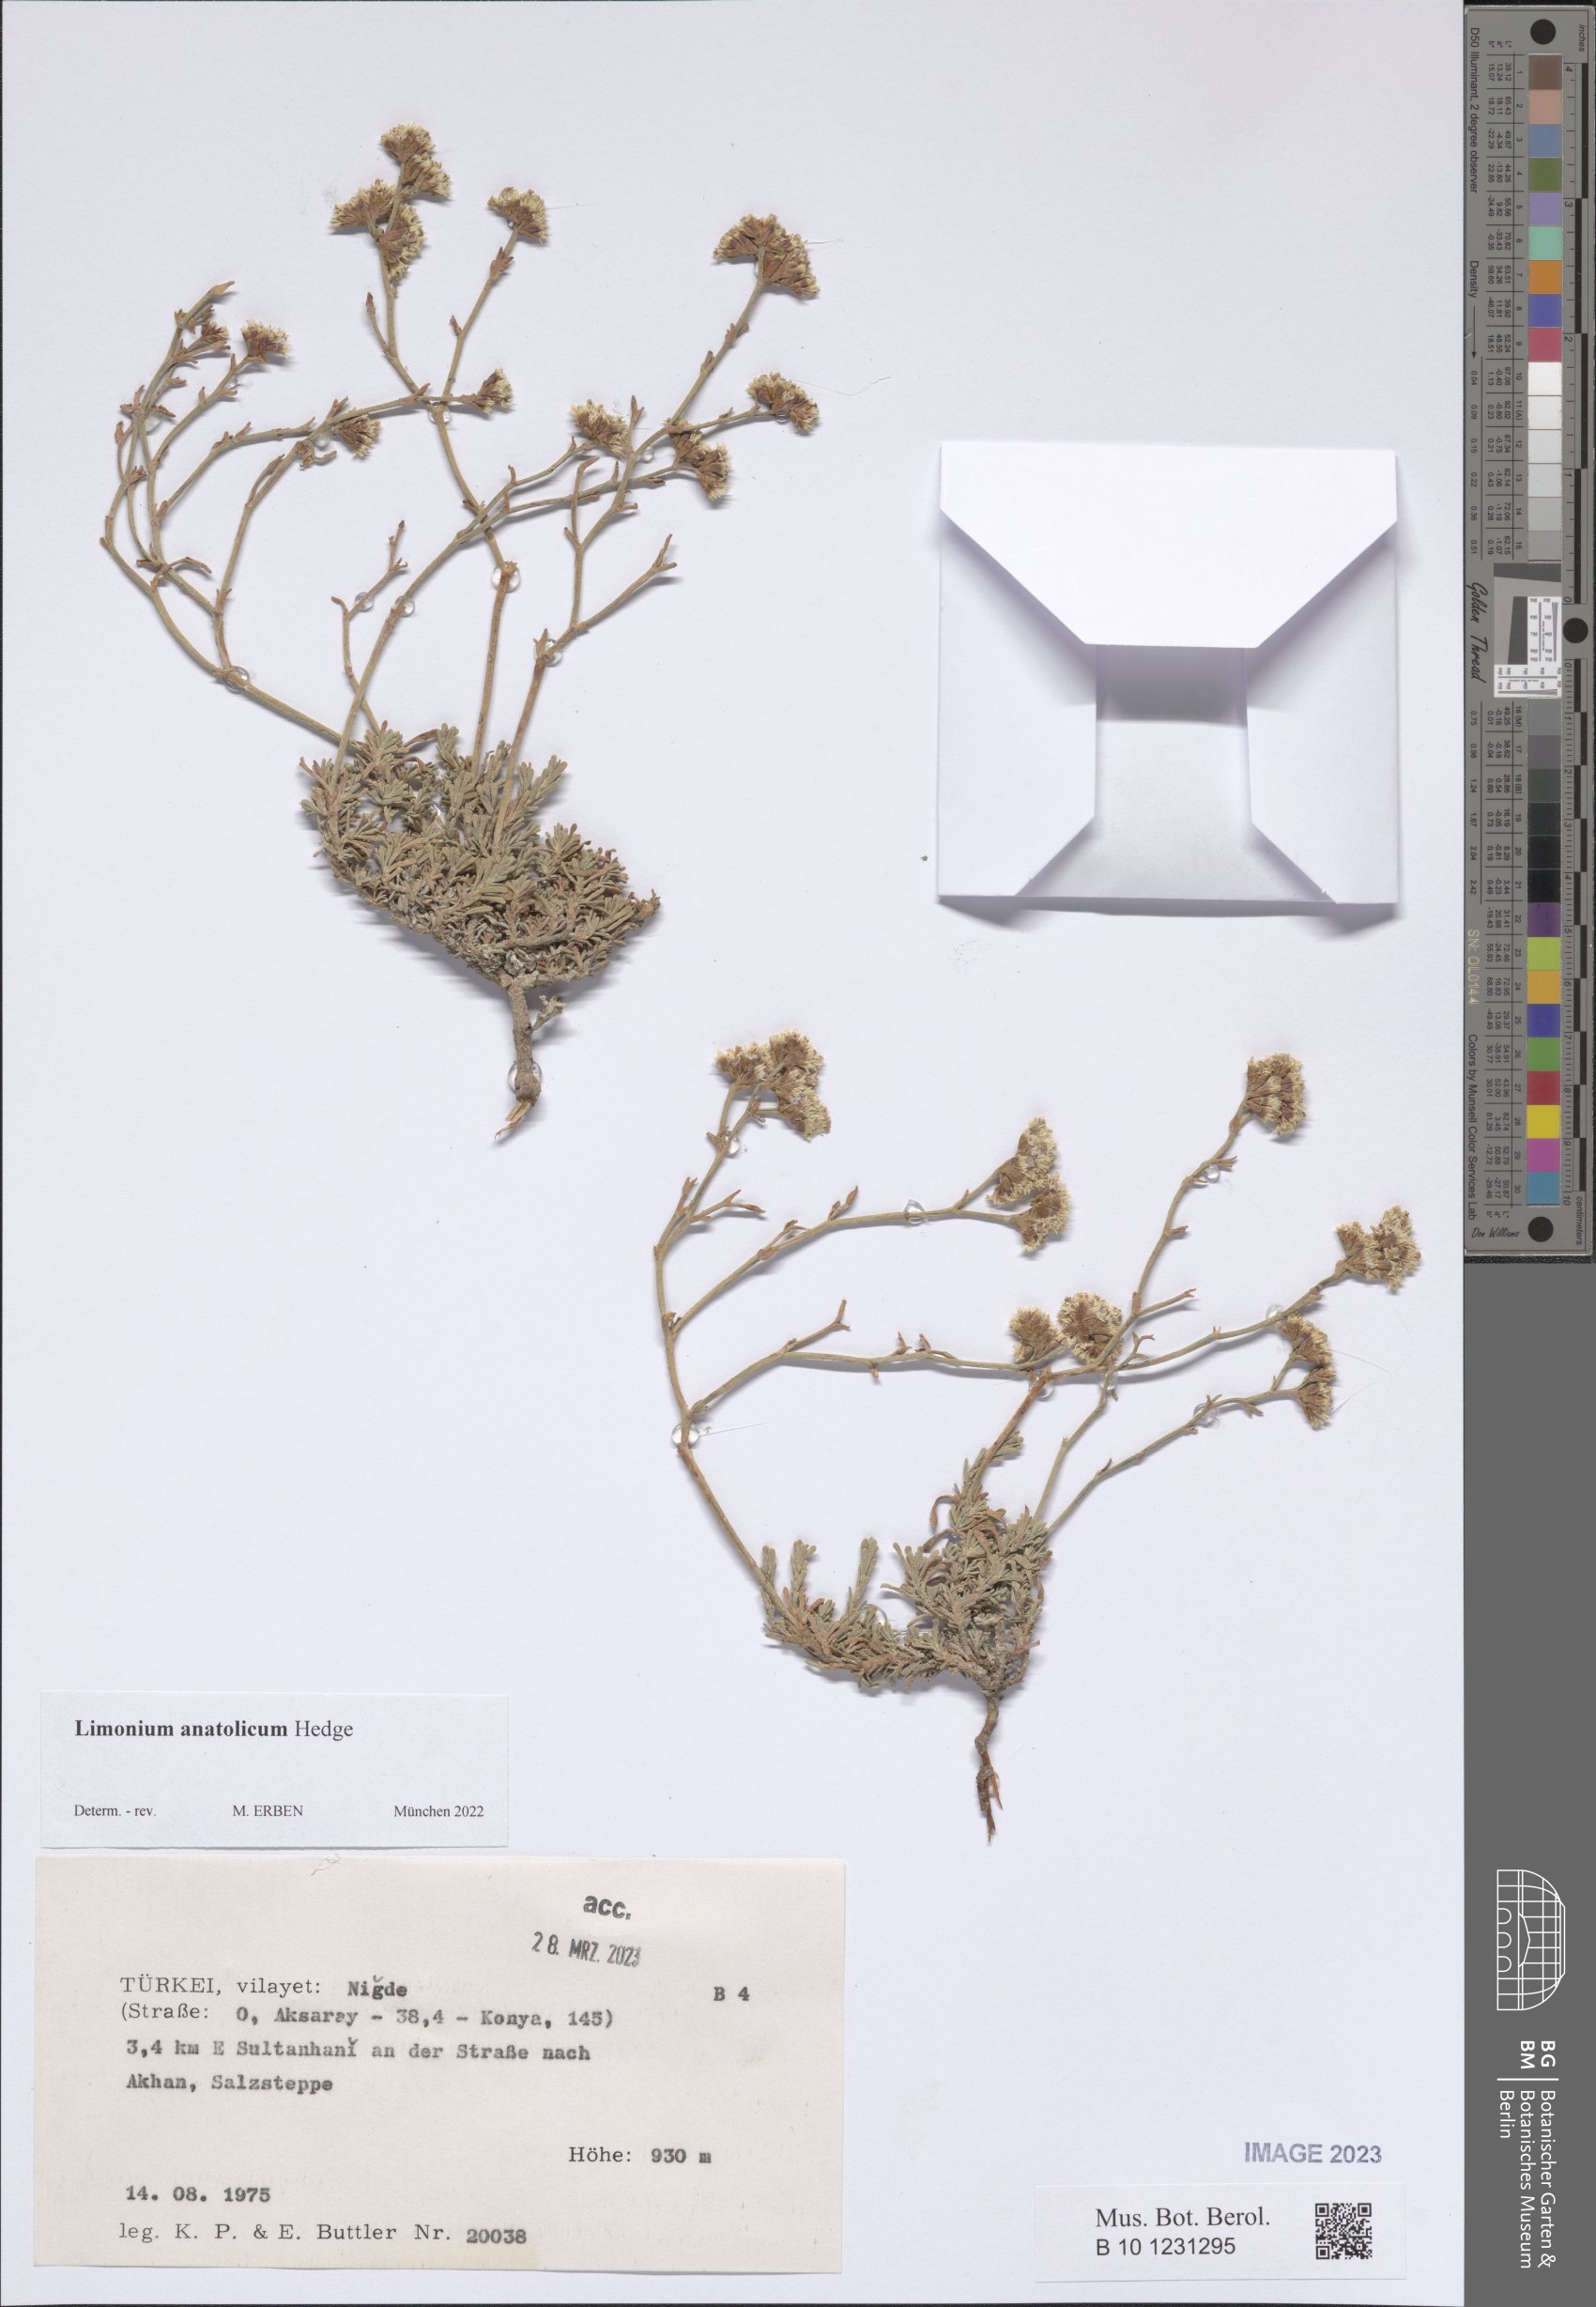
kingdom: Plantae
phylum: Tracheophyta
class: Magnoliopsida
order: Caryophyllales
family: Plumbaginaceae
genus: Limonium
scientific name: Limonium anatolicum
